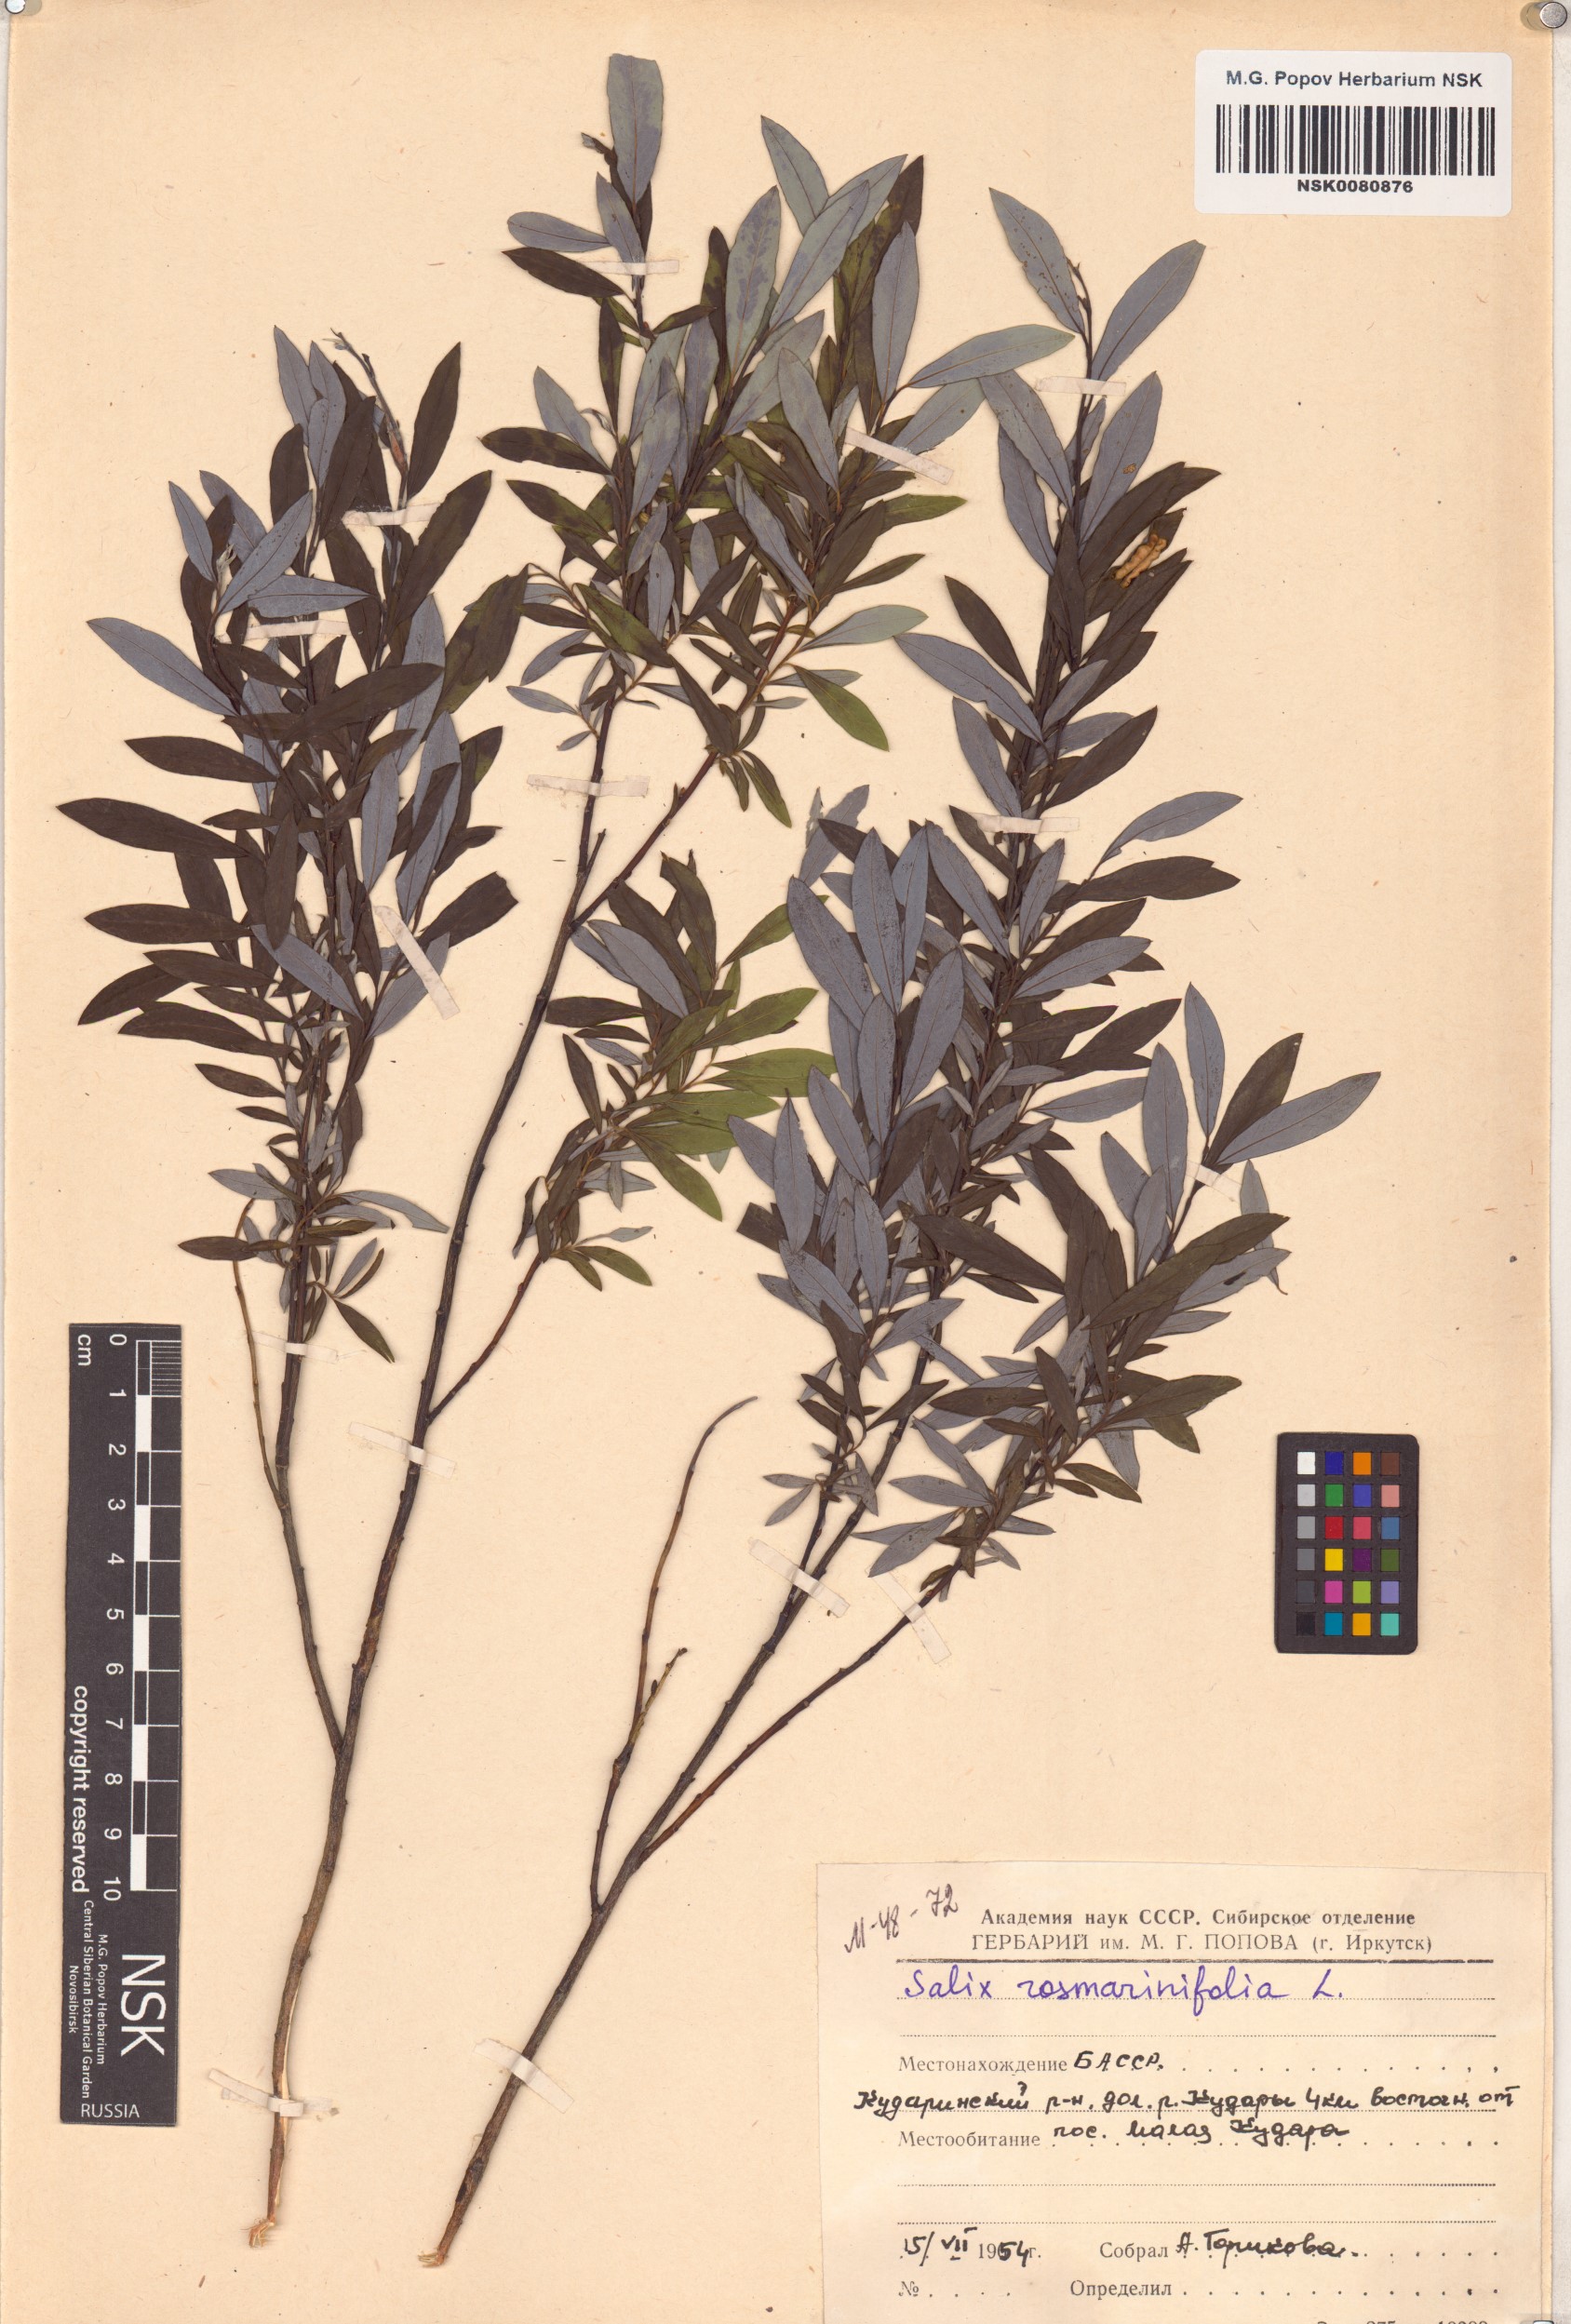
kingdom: Plantae
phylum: Tracheophyta
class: Magnoliopsida
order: Malpighiales
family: Salicaceae
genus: Salix
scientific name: Salix rosmarinifolia
